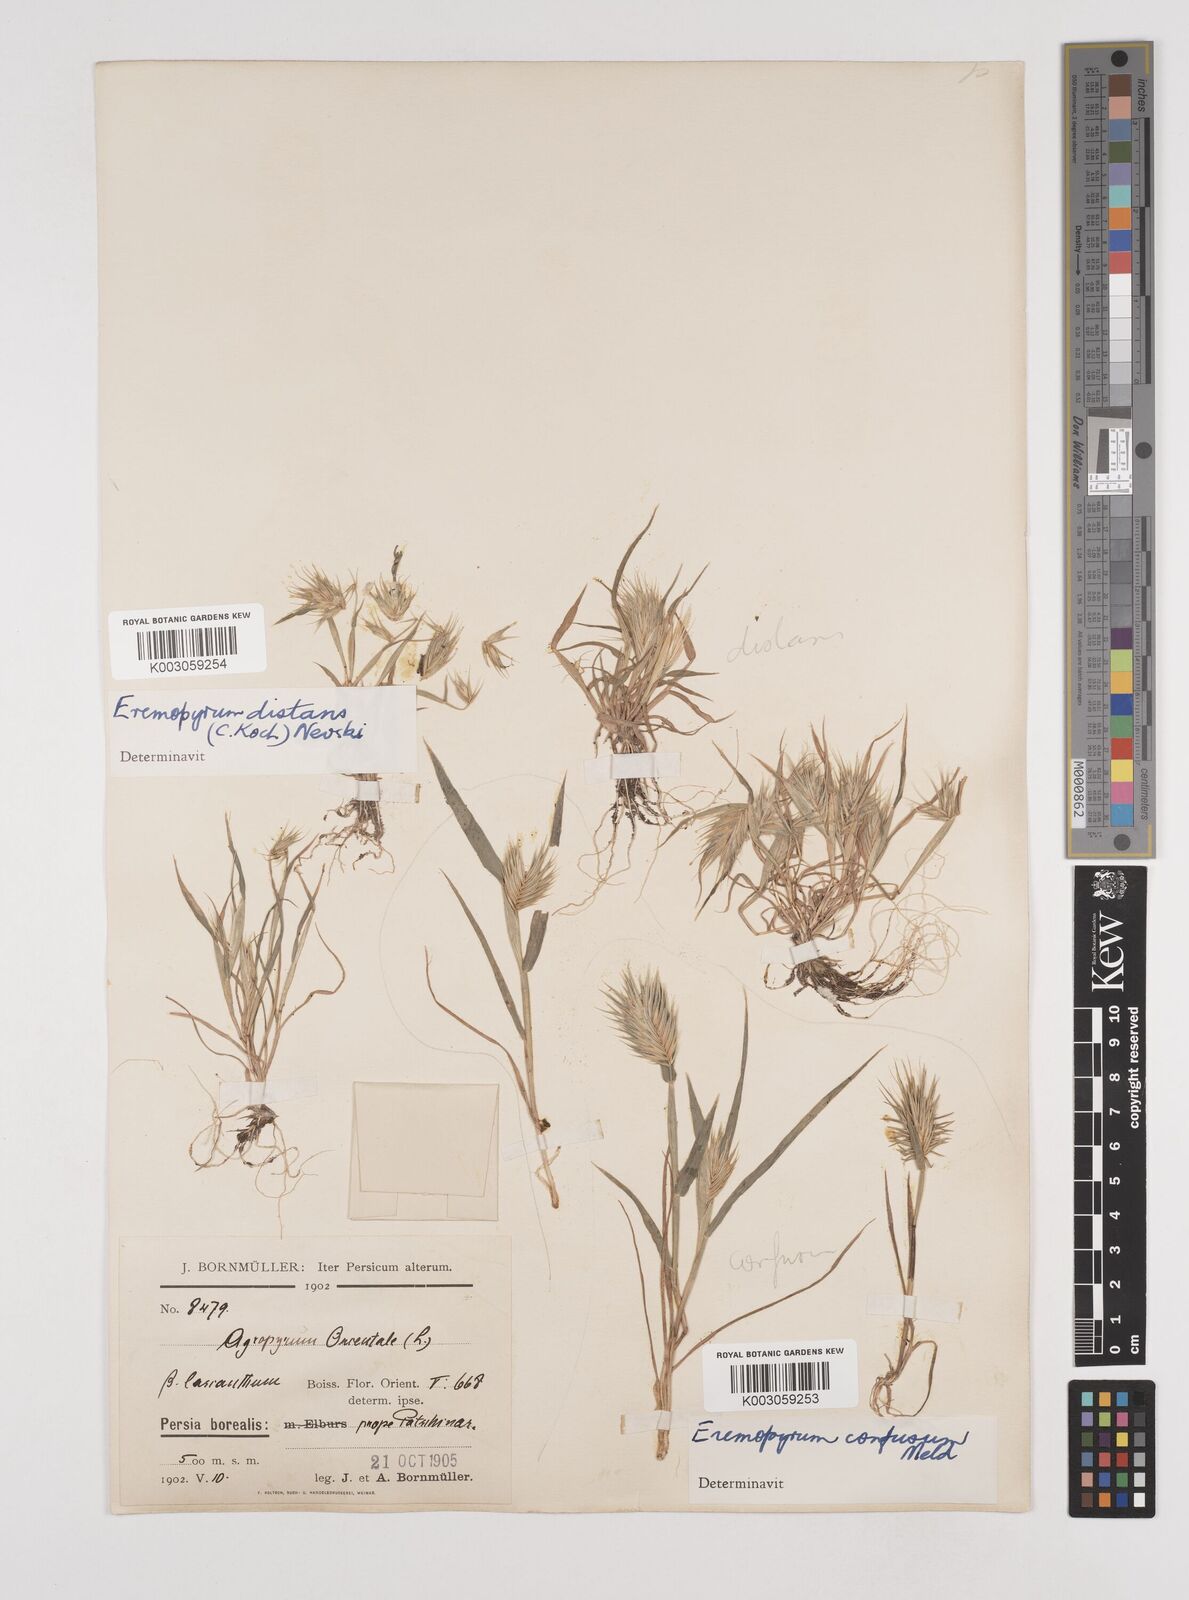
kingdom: Plantae
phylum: Tracheophyta
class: Liliopsida
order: Poales
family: Poaceae
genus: Eremopyrum
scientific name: Eremopyrum bonaepartis
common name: Tapertip false wheatgrass
